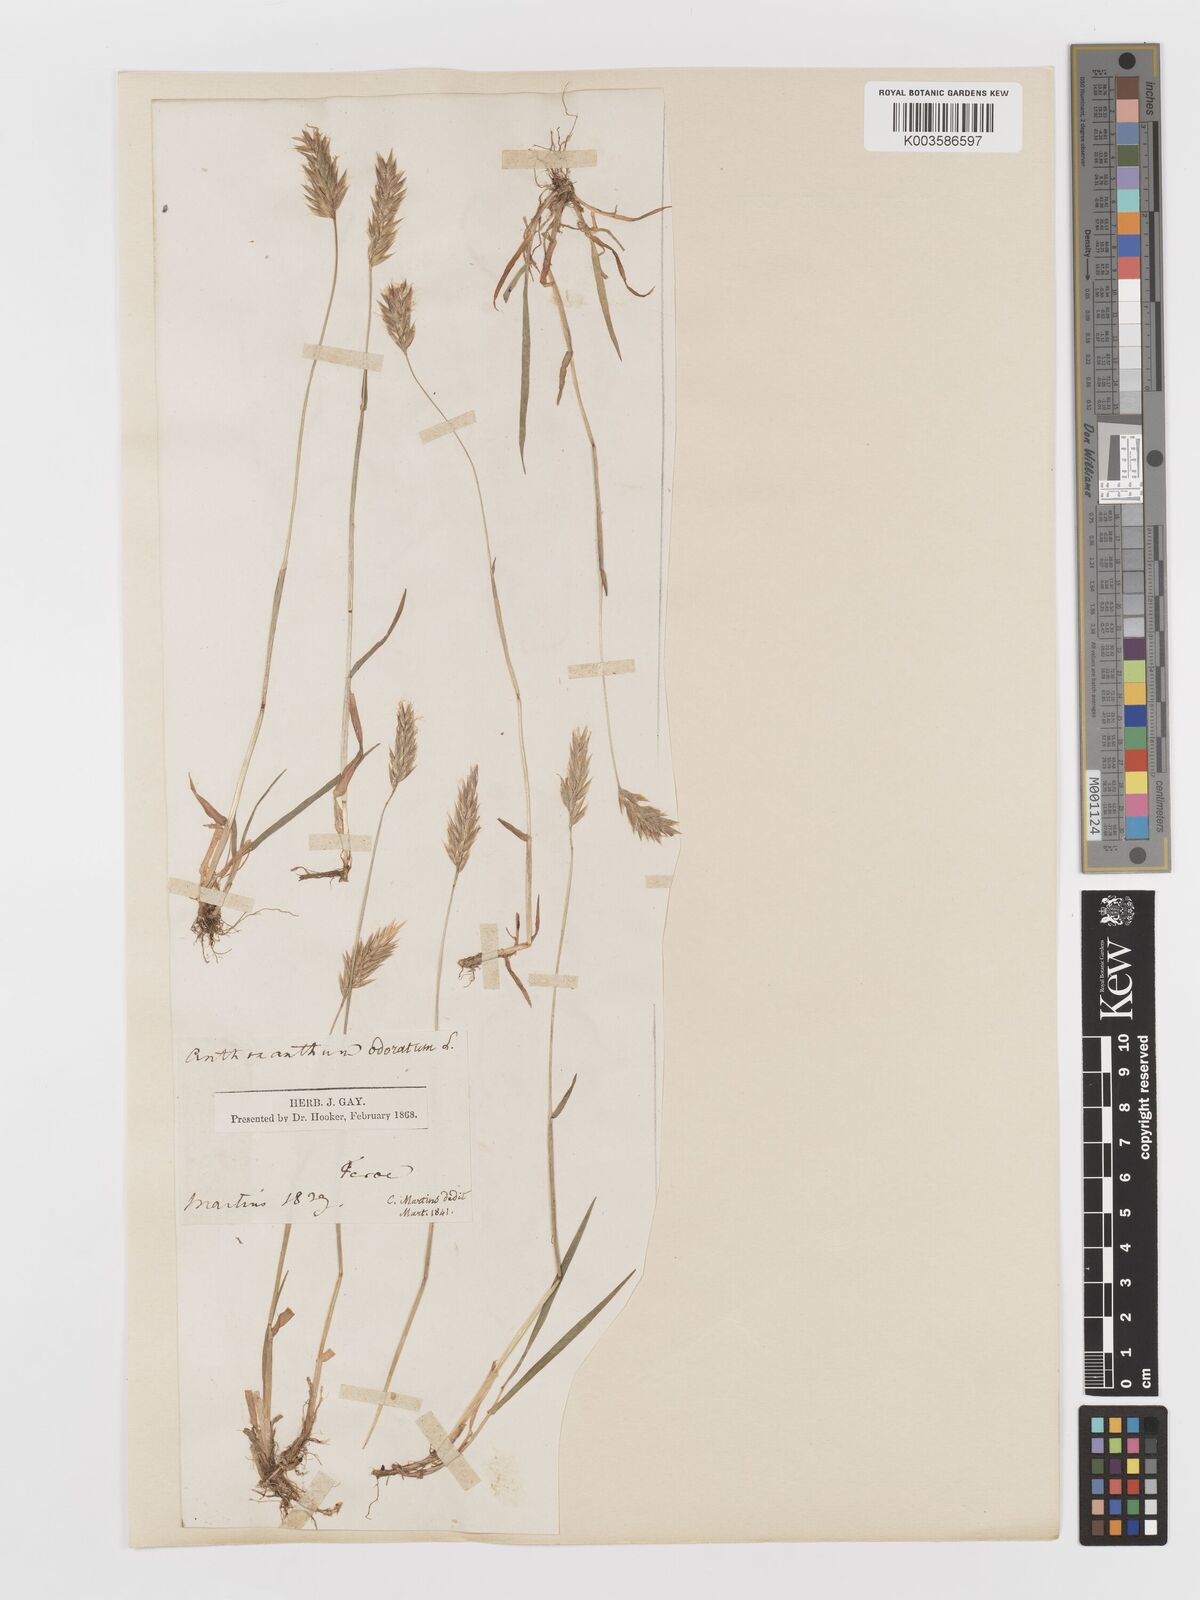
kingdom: Plantae
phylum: Tracheophyta
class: Liliopsida
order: Poales
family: Poaceae
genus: Anthoxanthum
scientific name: Anthoxanthum odoratum
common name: Sweet vernalgrass
